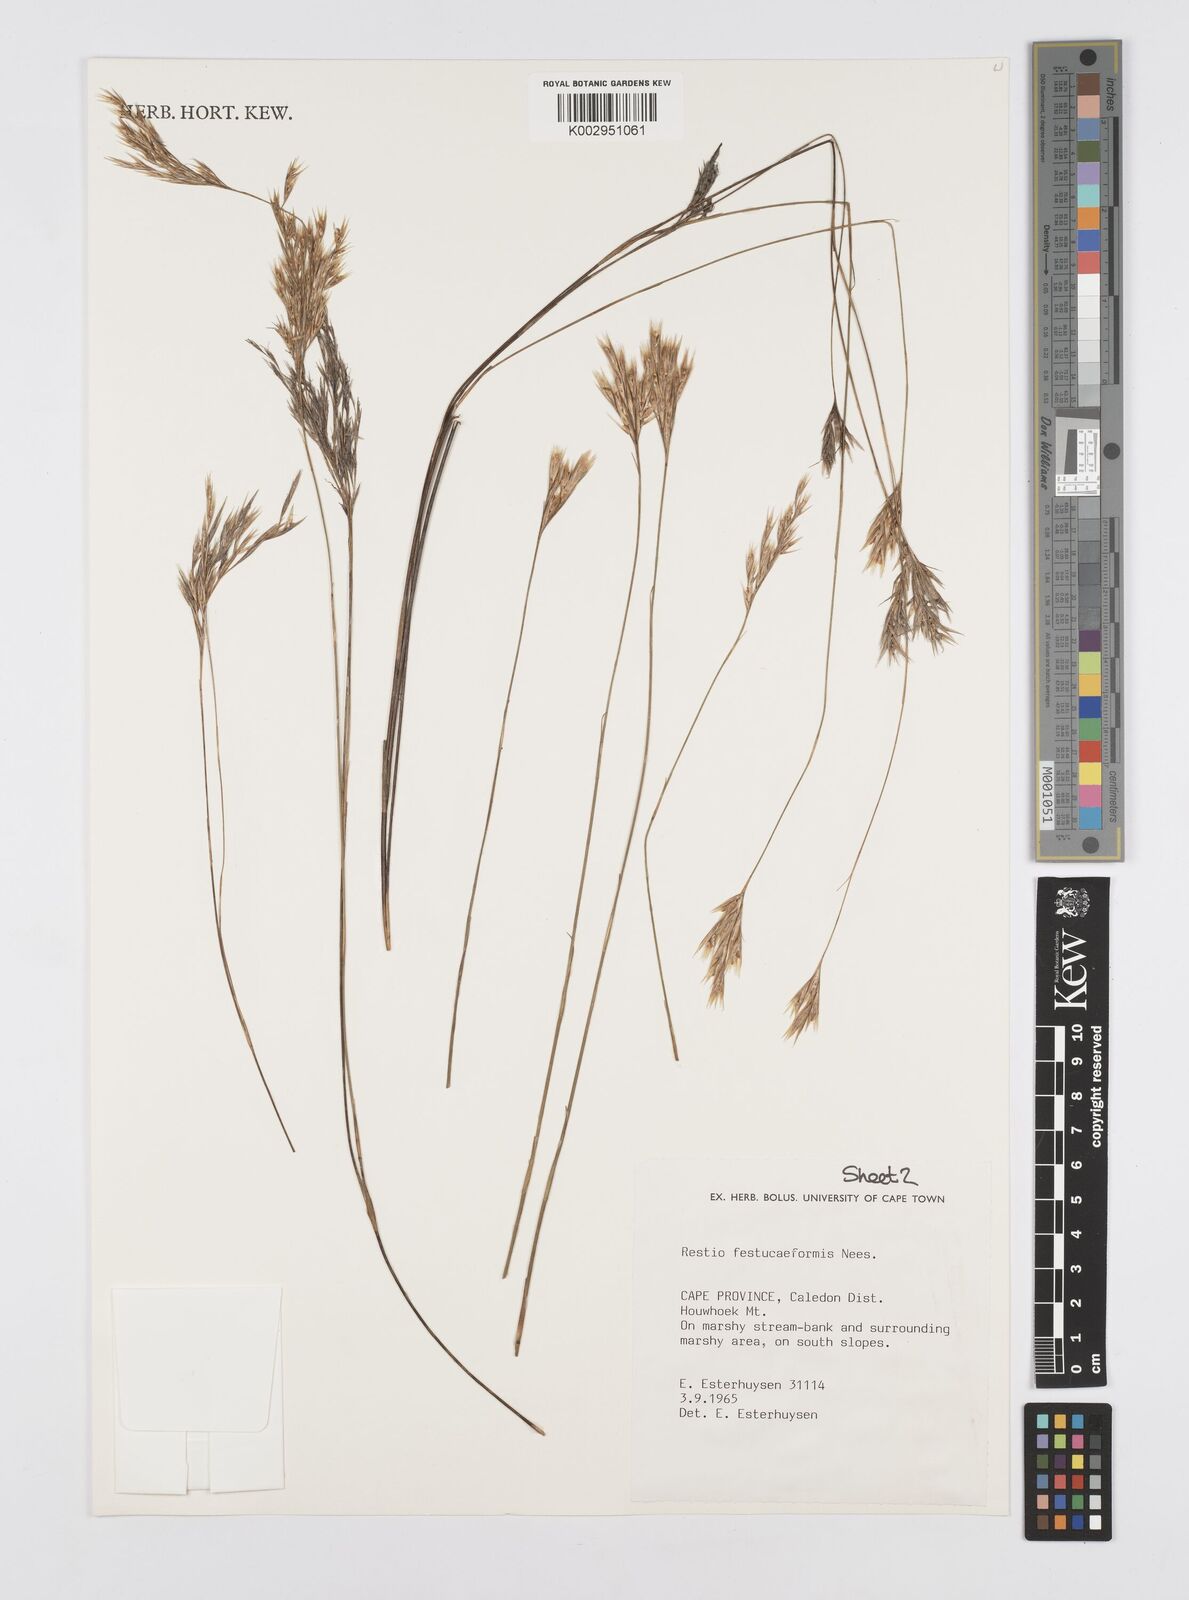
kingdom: Plantae
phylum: Tracheophyta
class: Liliopsida
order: Poales
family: Restionaceae
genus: Restio
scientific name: Restio festuciformis
